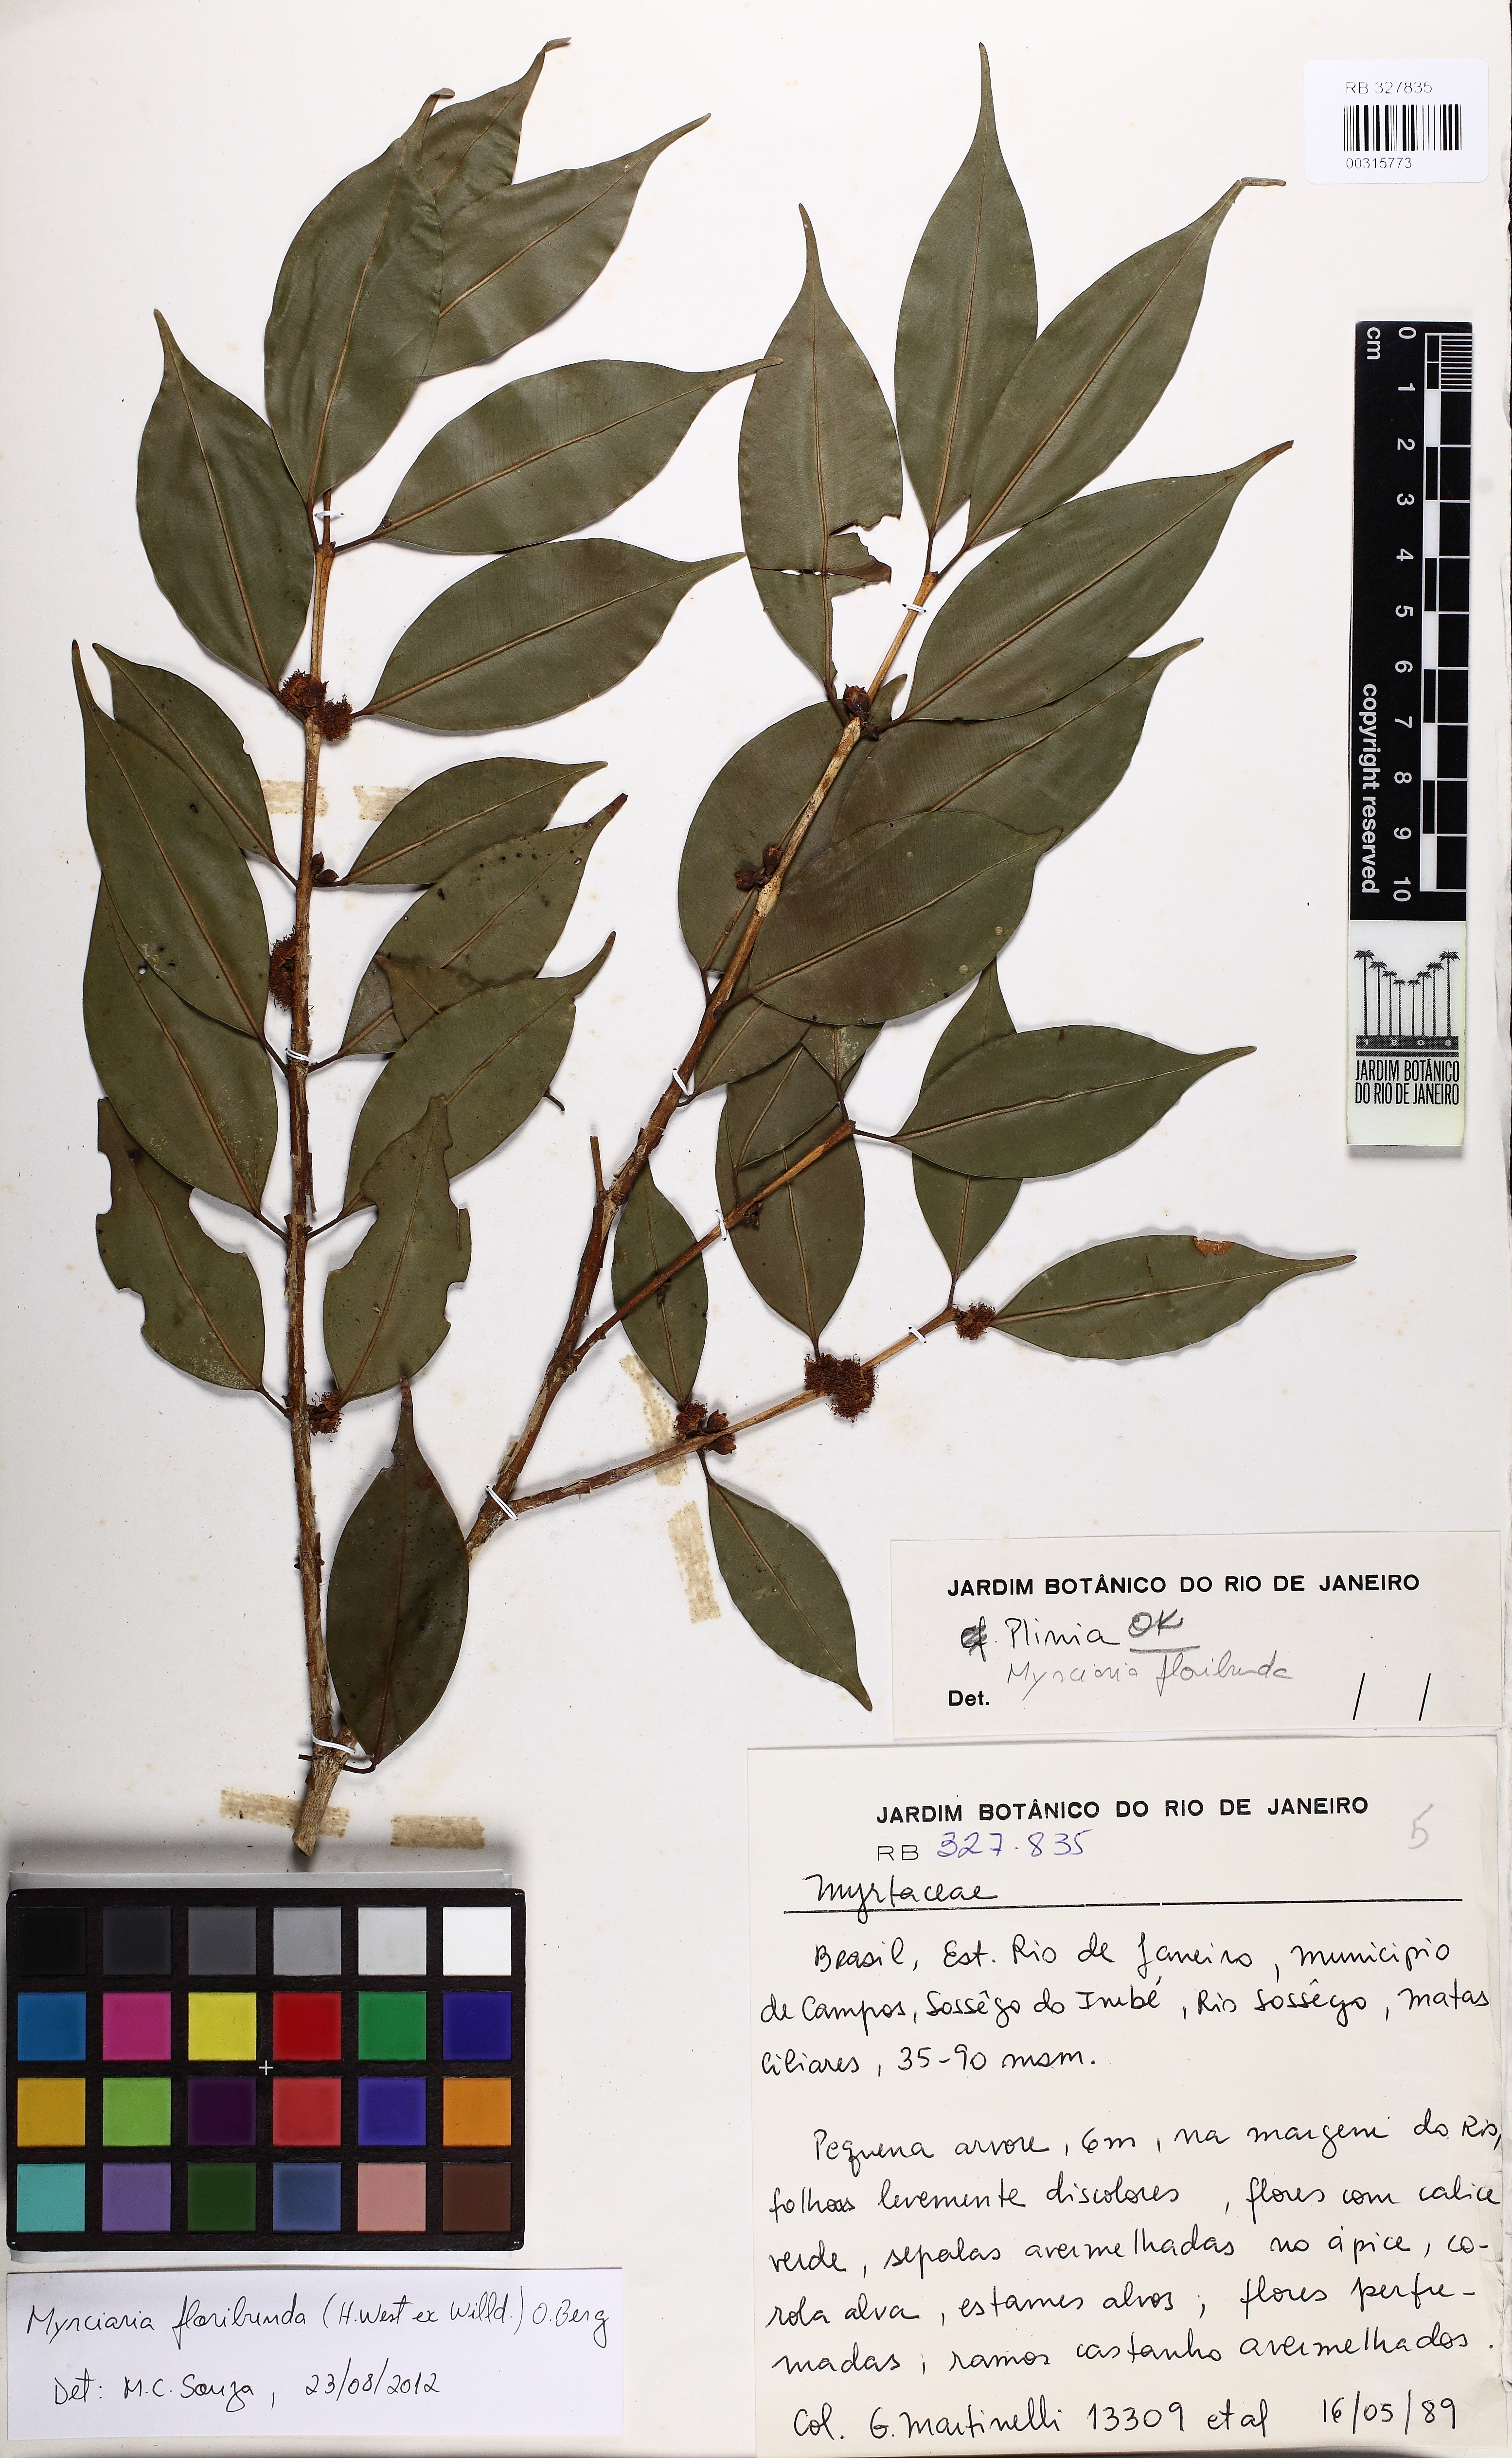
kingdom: Plantae
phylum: Tracheophyta
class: Magnoliopsida
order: Myrtales
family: Myrtaceae
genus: Myrciaria
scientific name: Myrciaria floribunda
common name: Guavaberry
